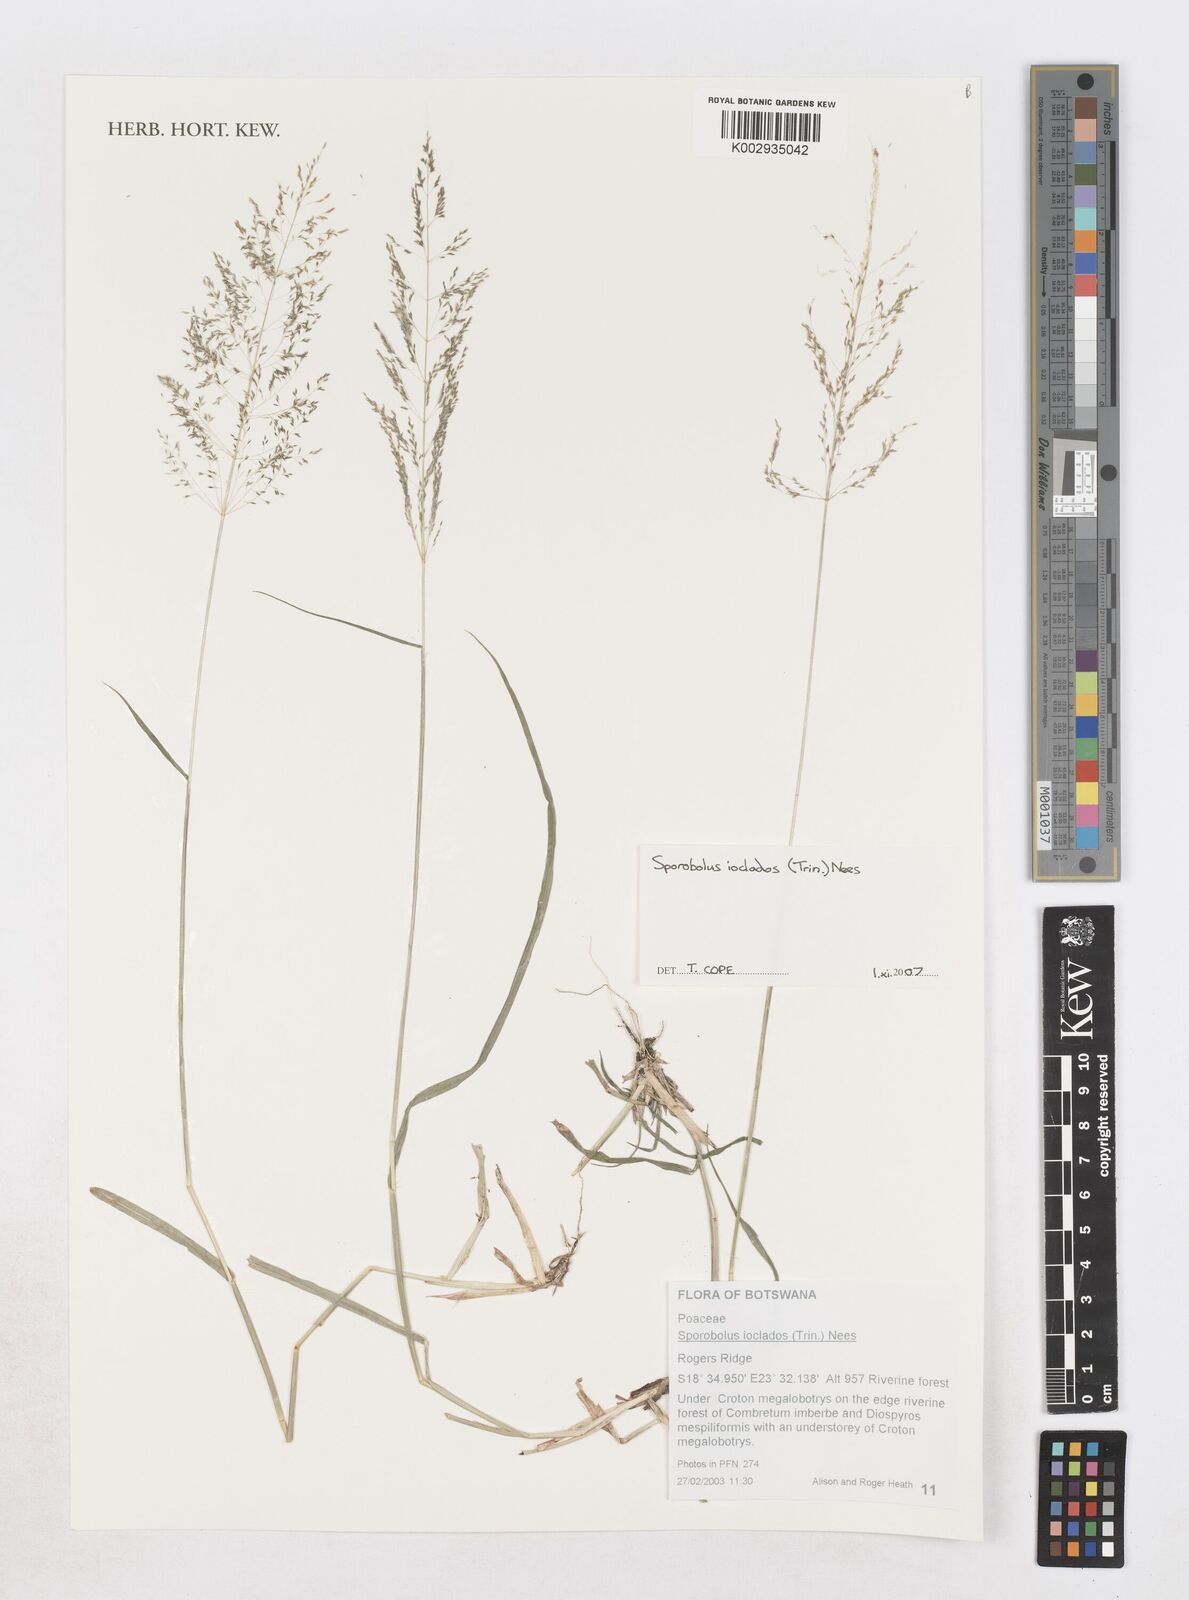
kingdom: Plantae
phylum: Tracheophyta
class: Liliopsida
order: Poales
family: Poaceae
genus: Sporobolus
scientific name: Sporobolus ioclados
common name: Pan dropseed
